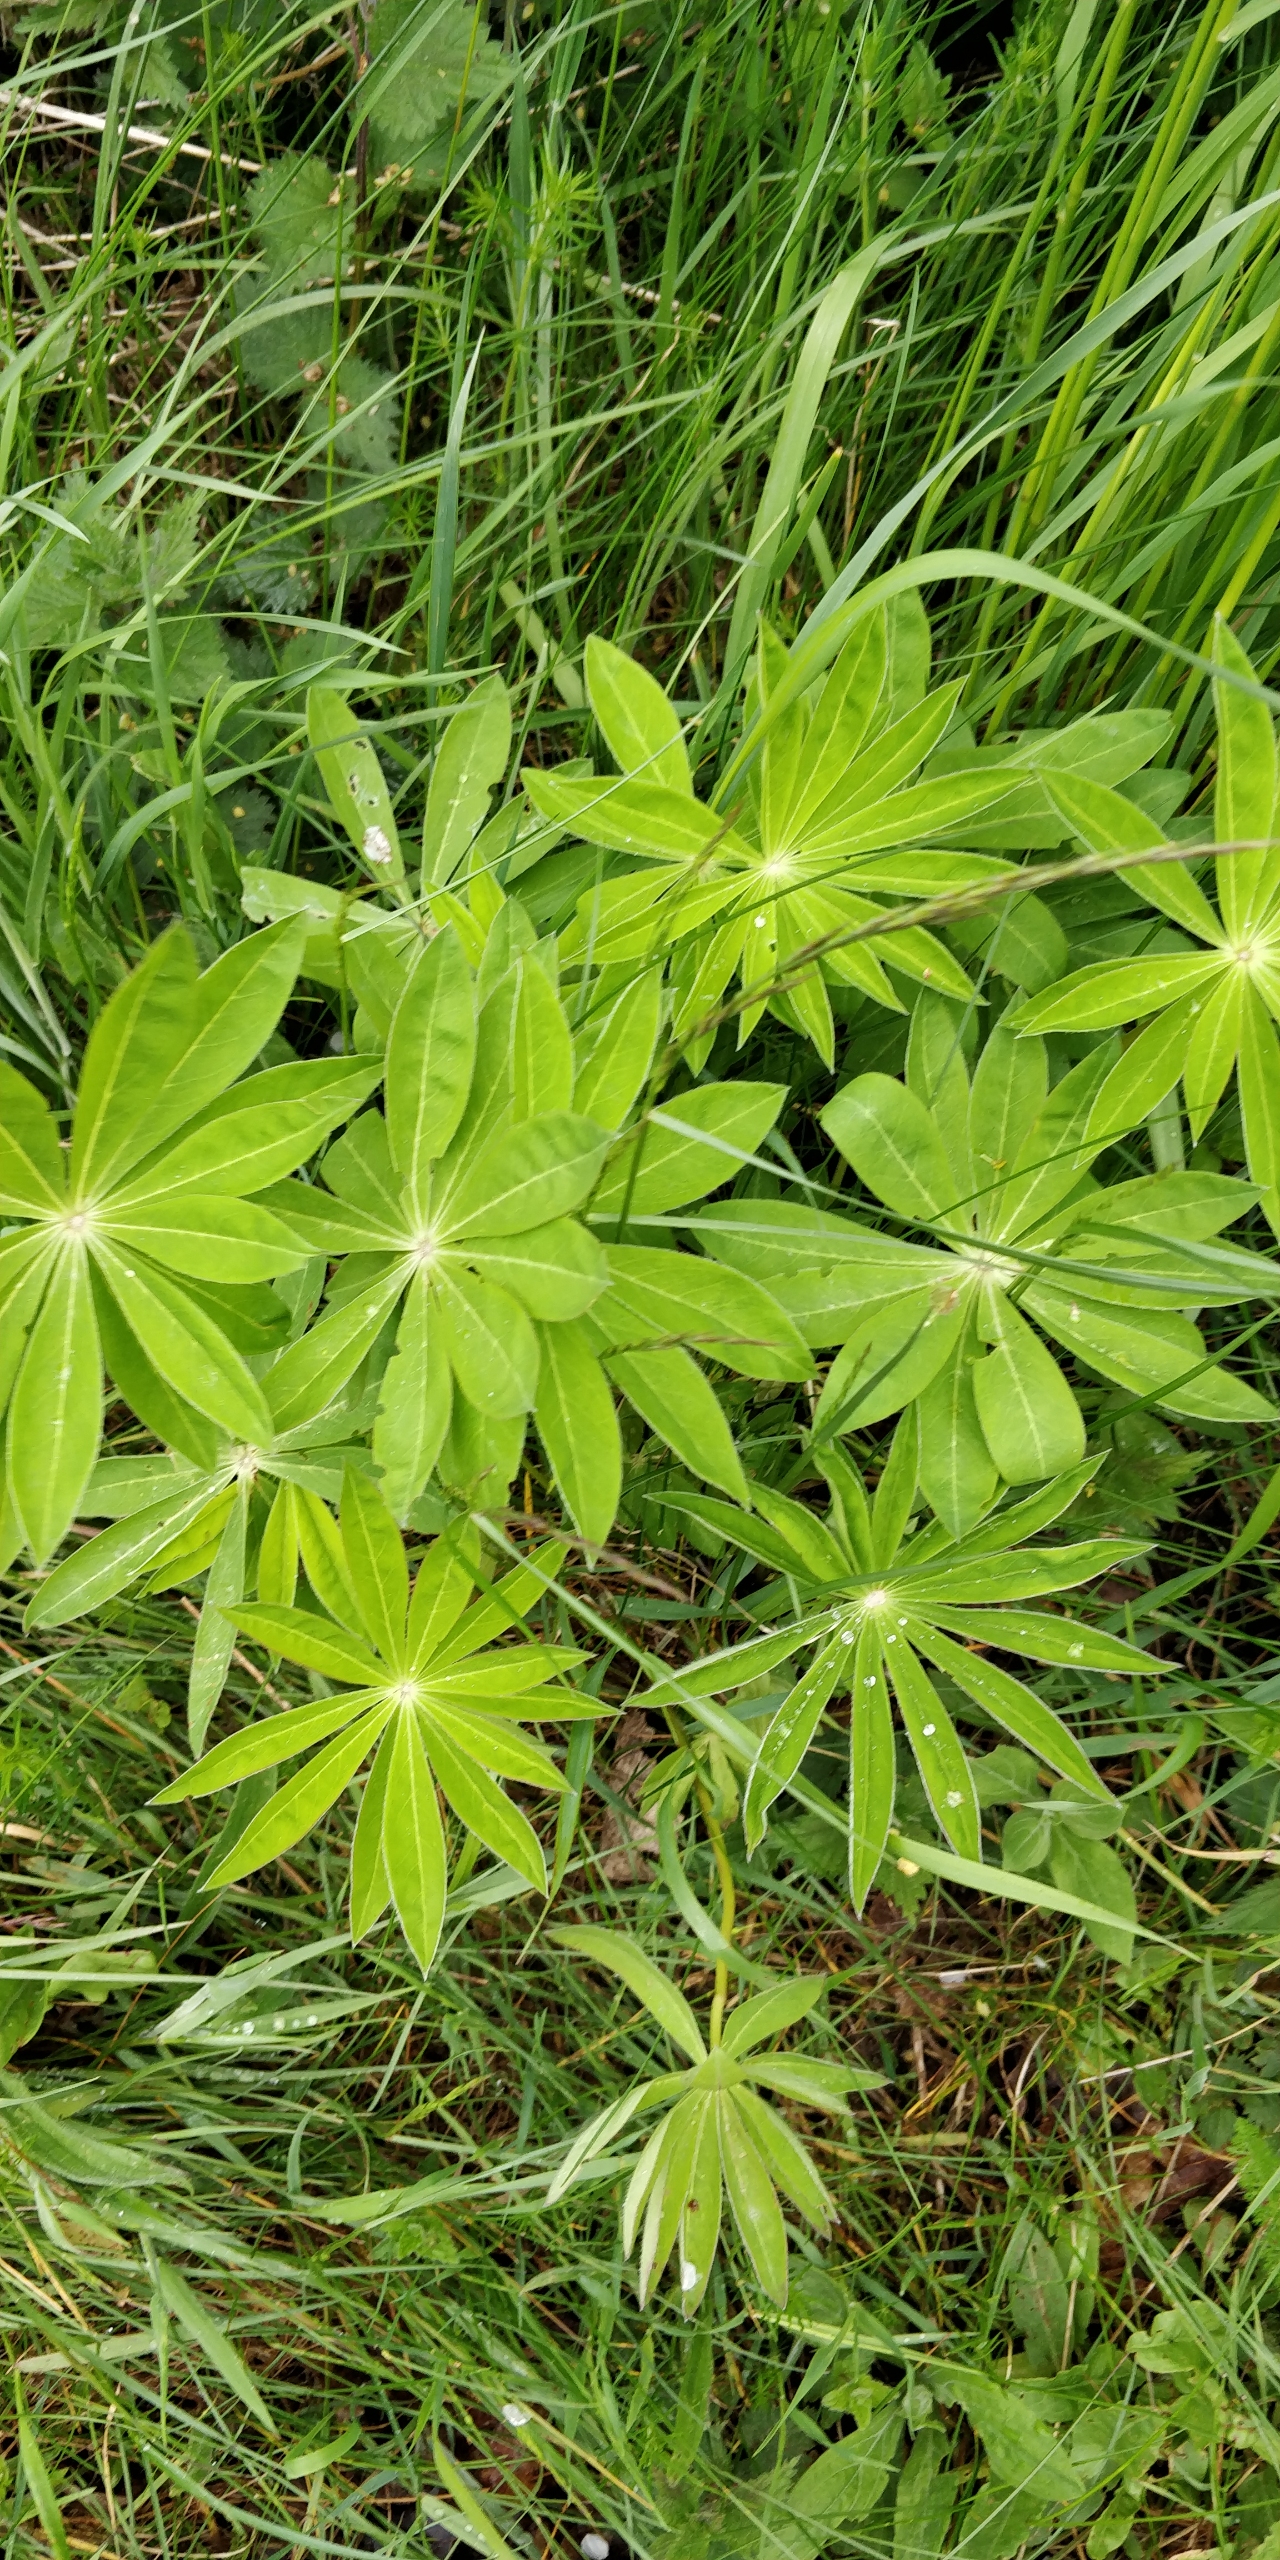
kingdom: Plantae
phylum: Tracheophyta
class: Magnoliopsida
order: Fabales
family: Fabaceae
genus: Lupinus
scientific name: Lupinus polyphyllus
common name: Mangebladet lupin
